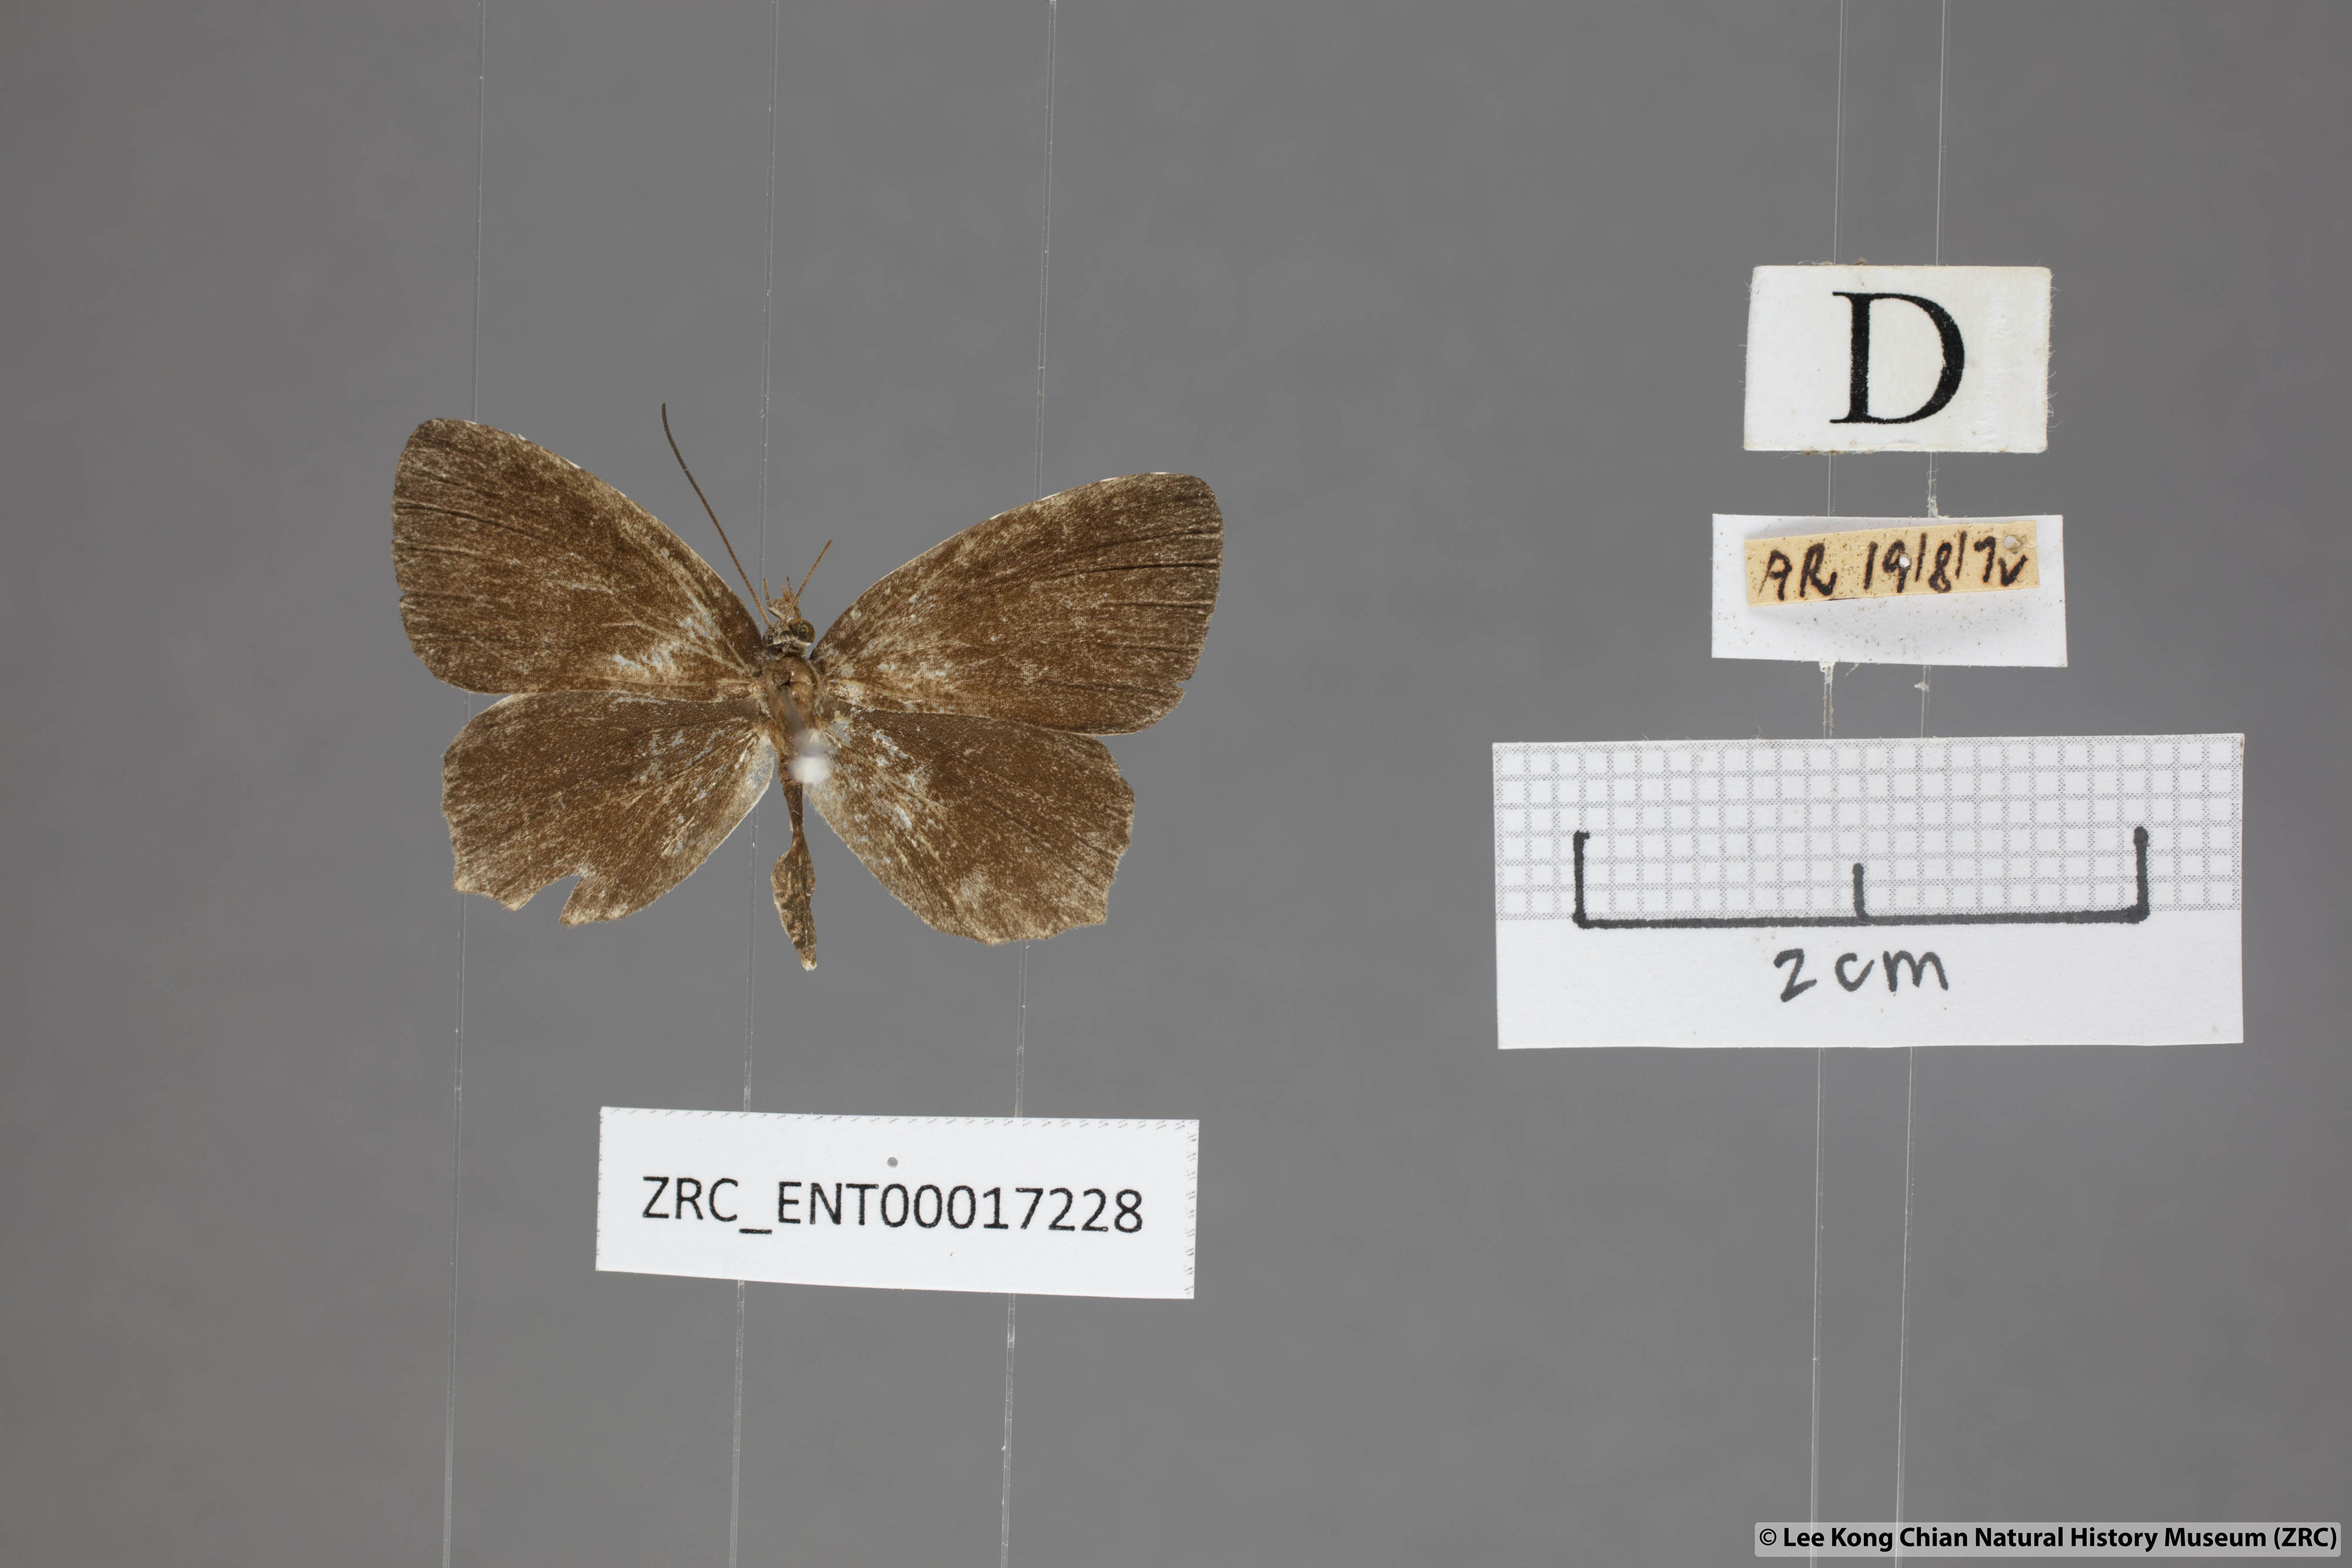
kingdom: Animalia
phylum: Arthropoda
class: Insecta
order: Lepidoptera
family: Lycaenidae
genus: Allotinus
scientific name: Allotinus fabius
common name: Angled darkie
